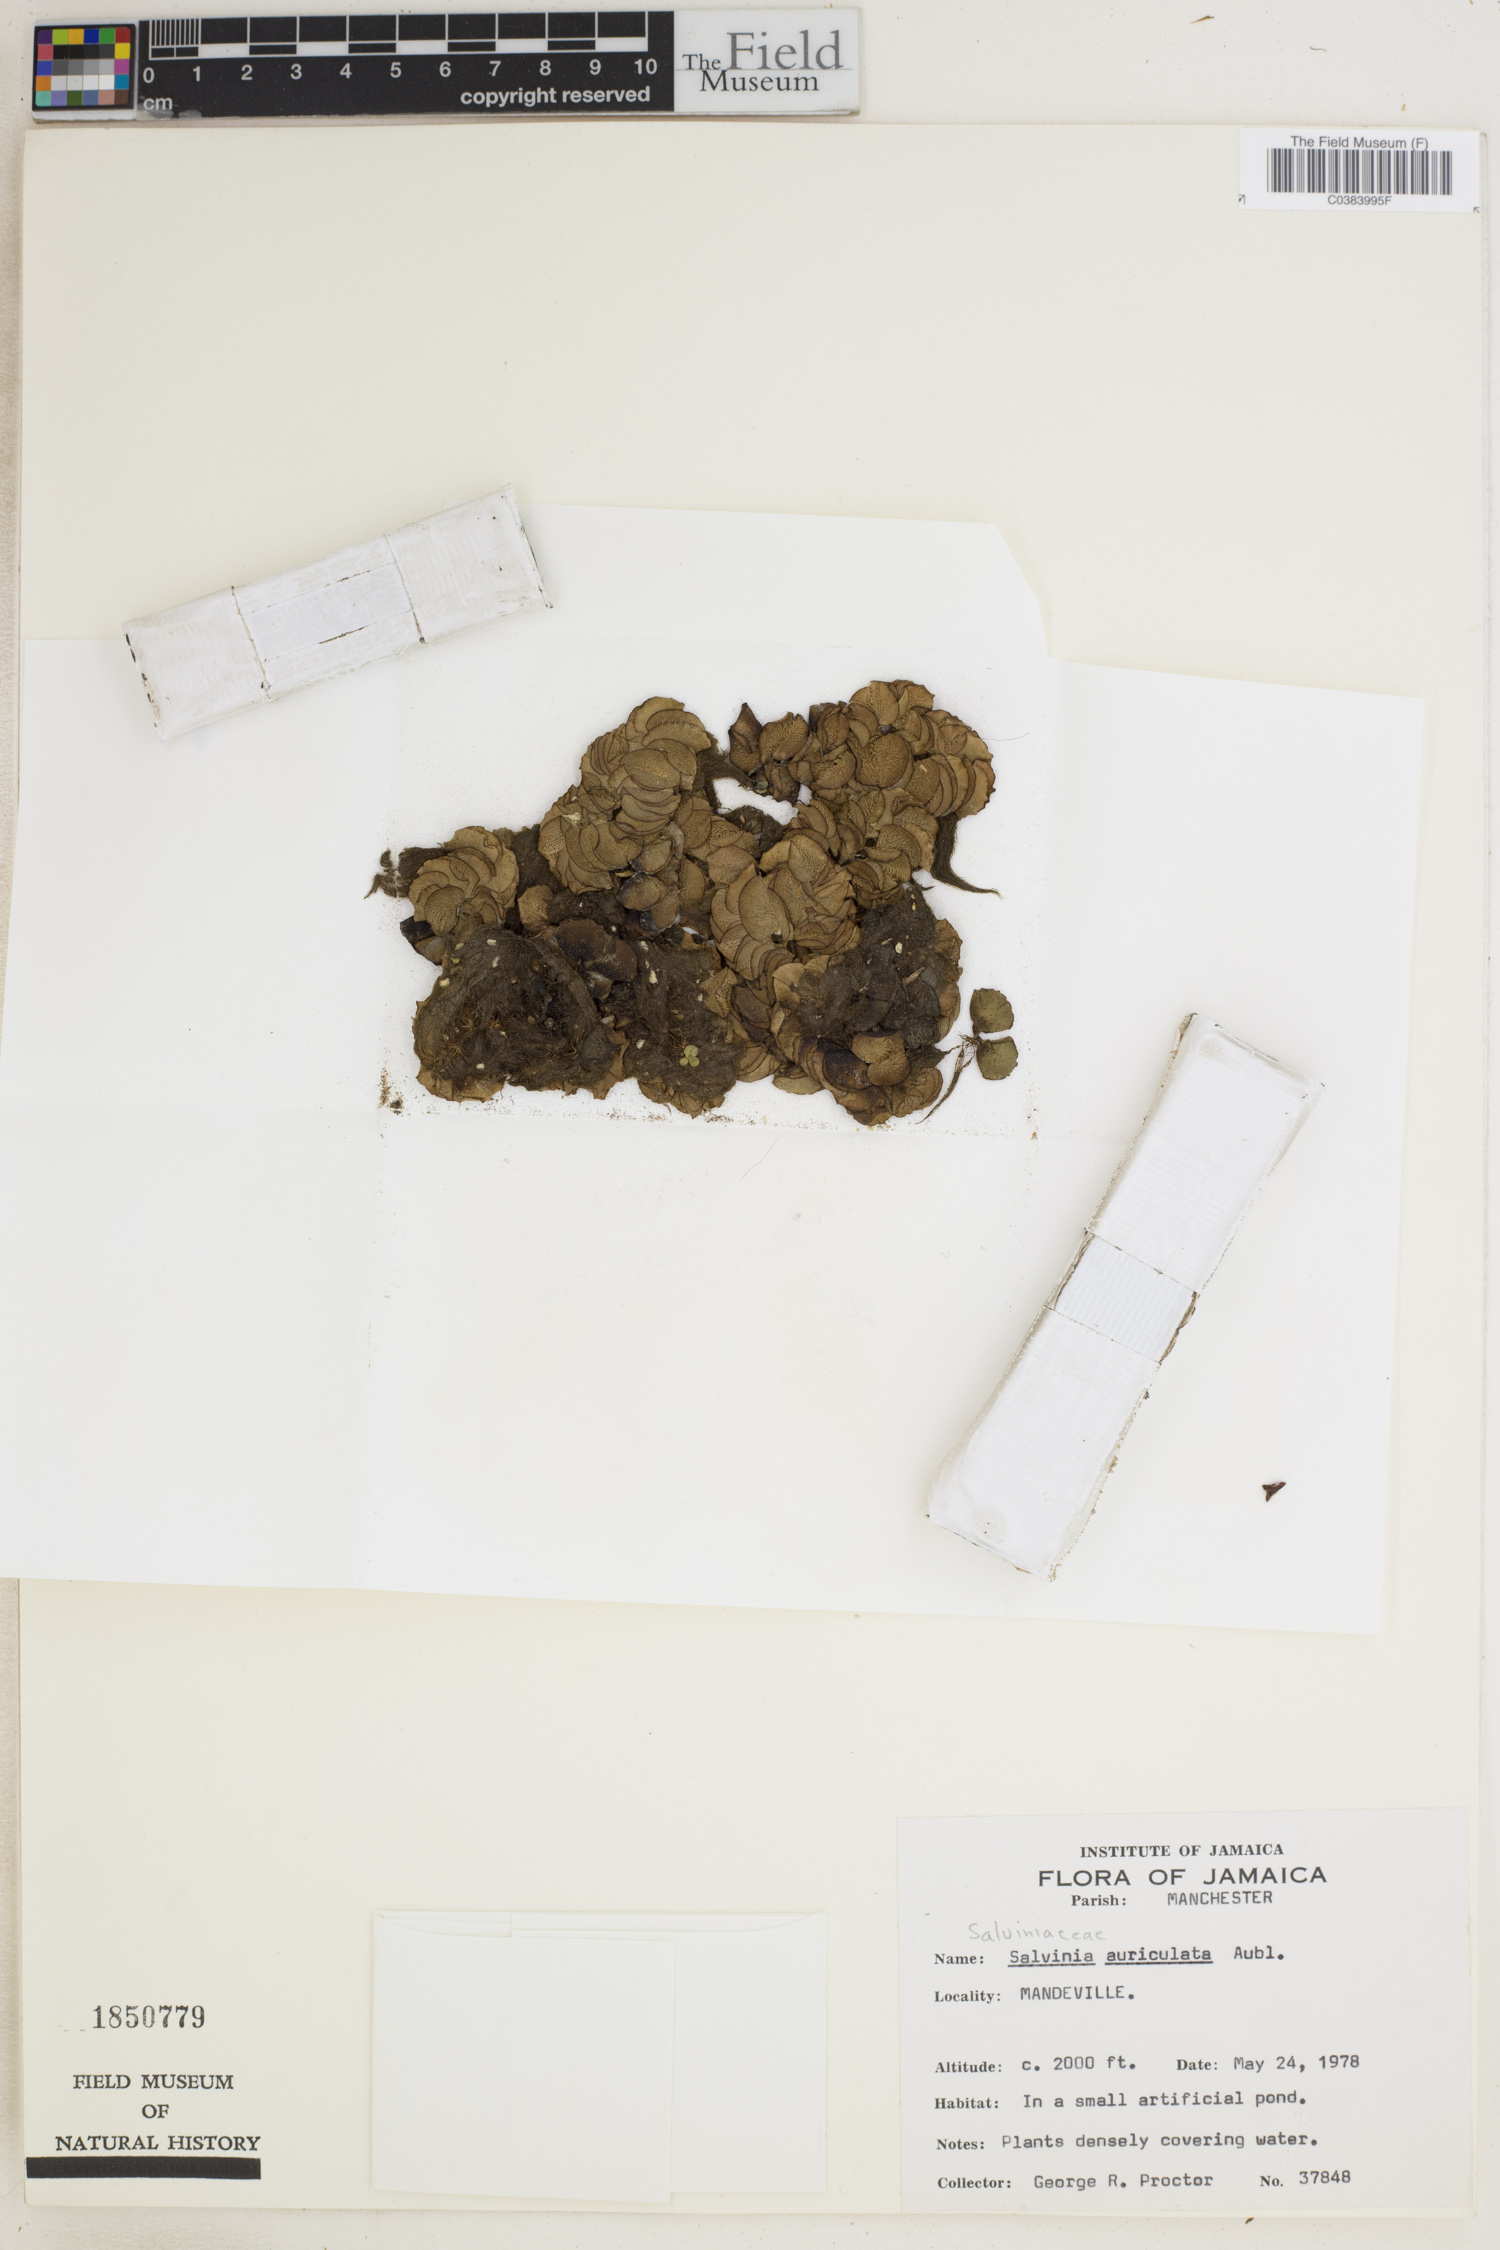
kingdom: Plantae
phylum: Tracheophyta
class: Polypodiopsida
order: Salviniales
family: Salviniaceae
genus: Salvinia
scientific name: Salvinia auriculata
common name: African payal
